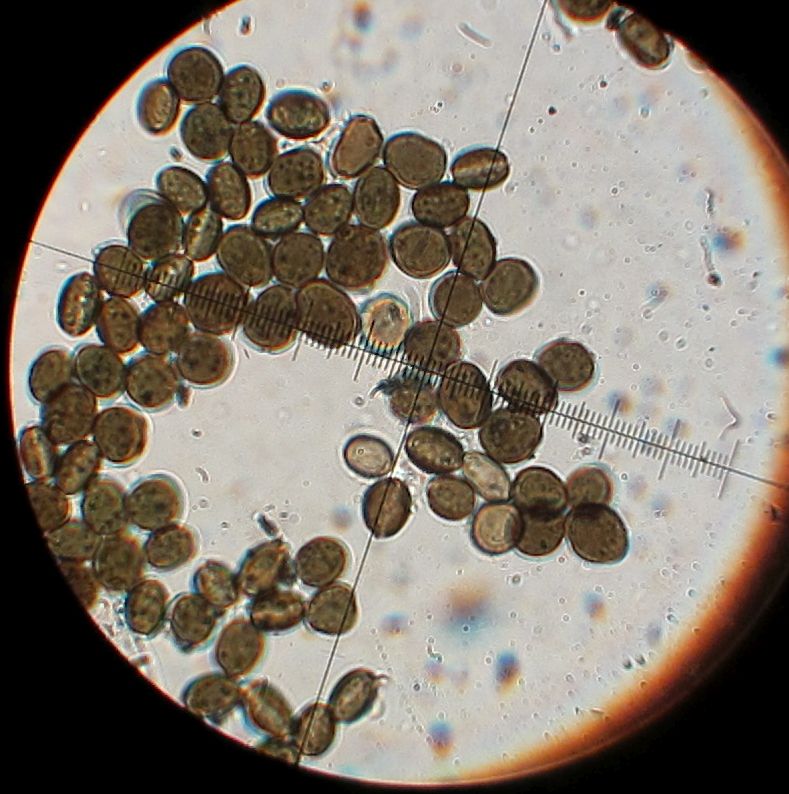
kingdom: Fungi
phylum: Ascomycota
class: Sordariomycetes
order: Xylariales
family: Apiosporaceae
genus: Apiospora
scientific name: Apiospora sphaerosperma
